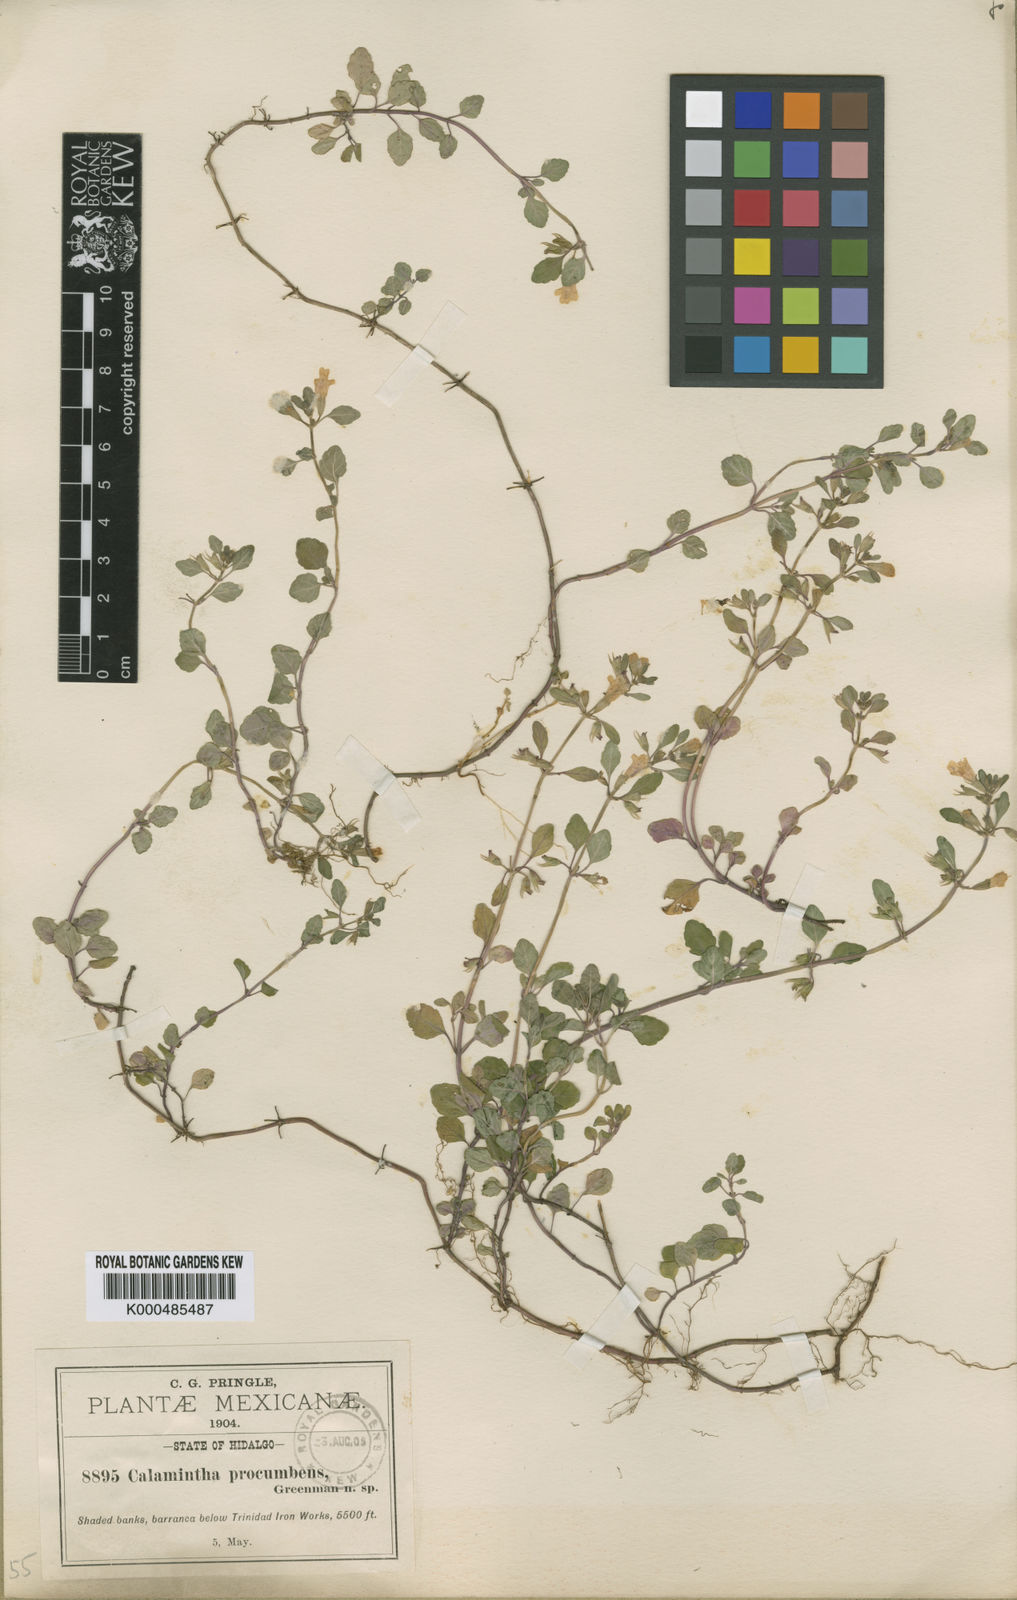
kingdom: Plantae
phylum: Tracheophyta
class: Magnoliopsida
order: Lamiales
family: Lamiaceae
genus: Clinopodium
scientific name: Clinopodium procumbens
